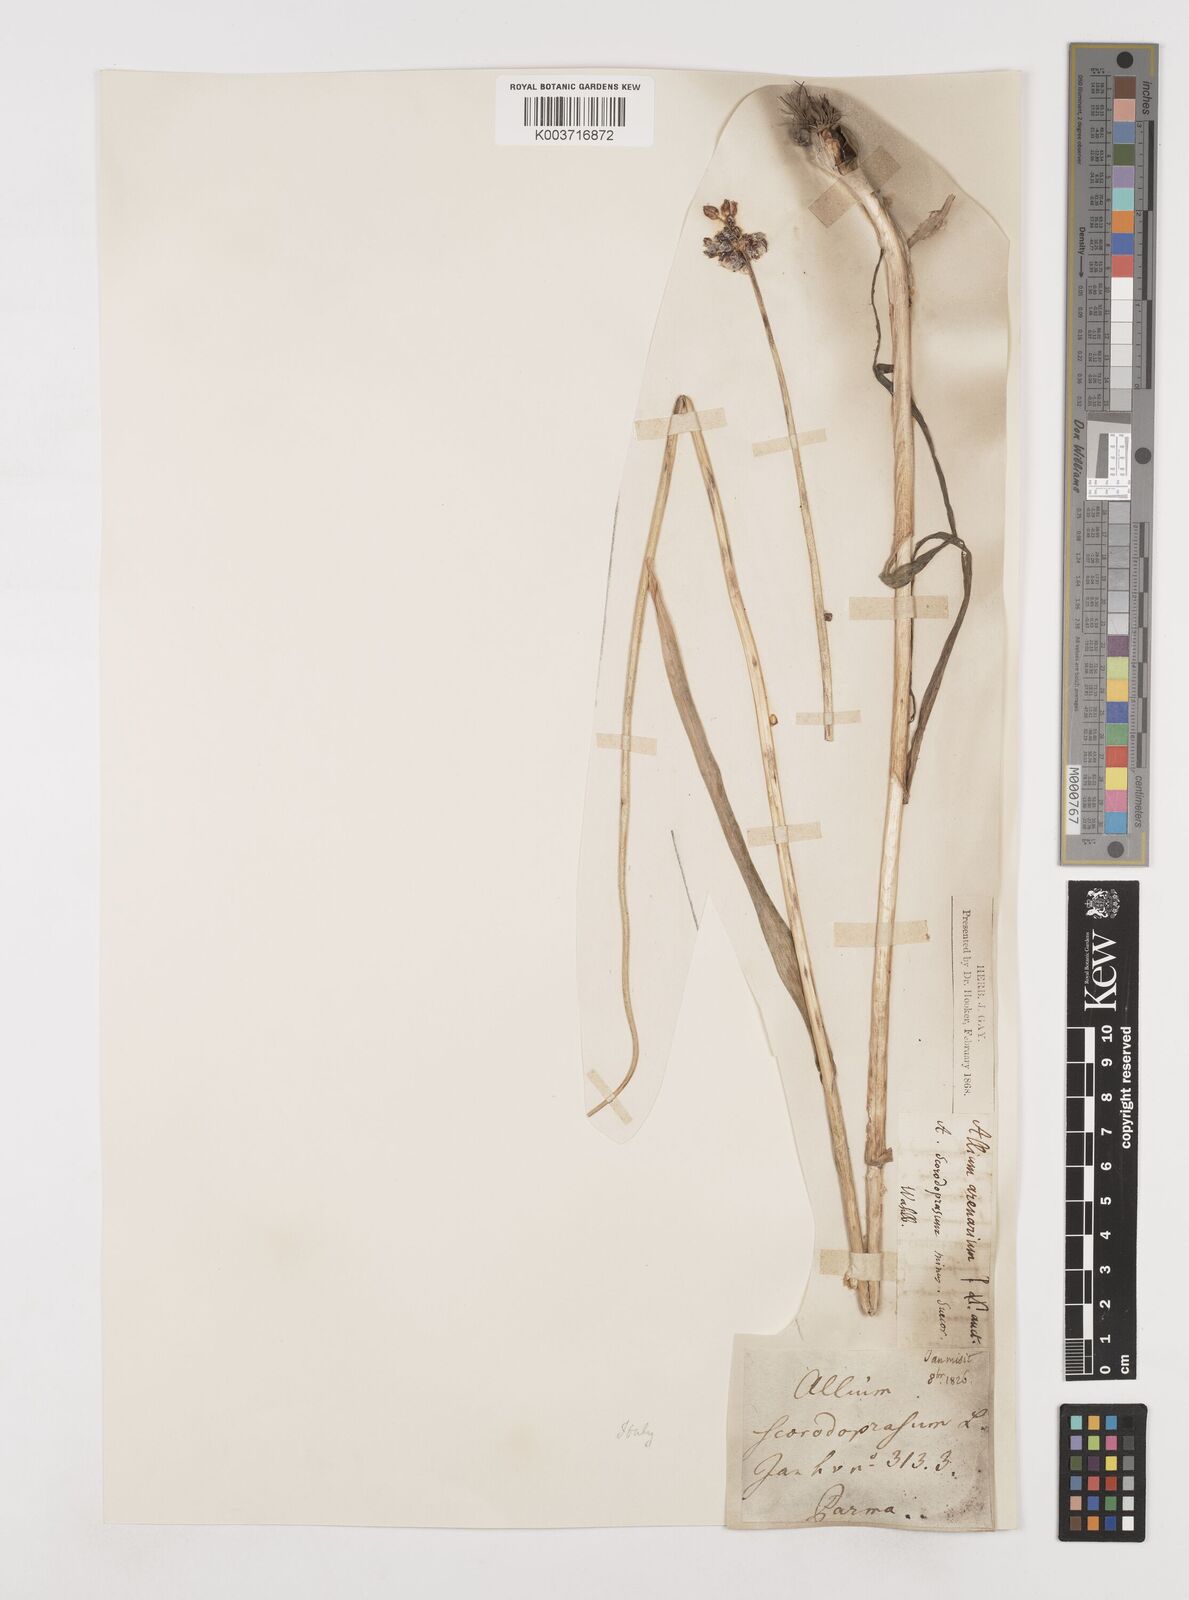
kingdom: Plantae
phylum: Tracheophyta
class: Liliopsida
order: Asparagales
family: Amaryllidaceae
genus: Allium
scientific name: Allium sphaerocephalon
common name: Round-headed leek
